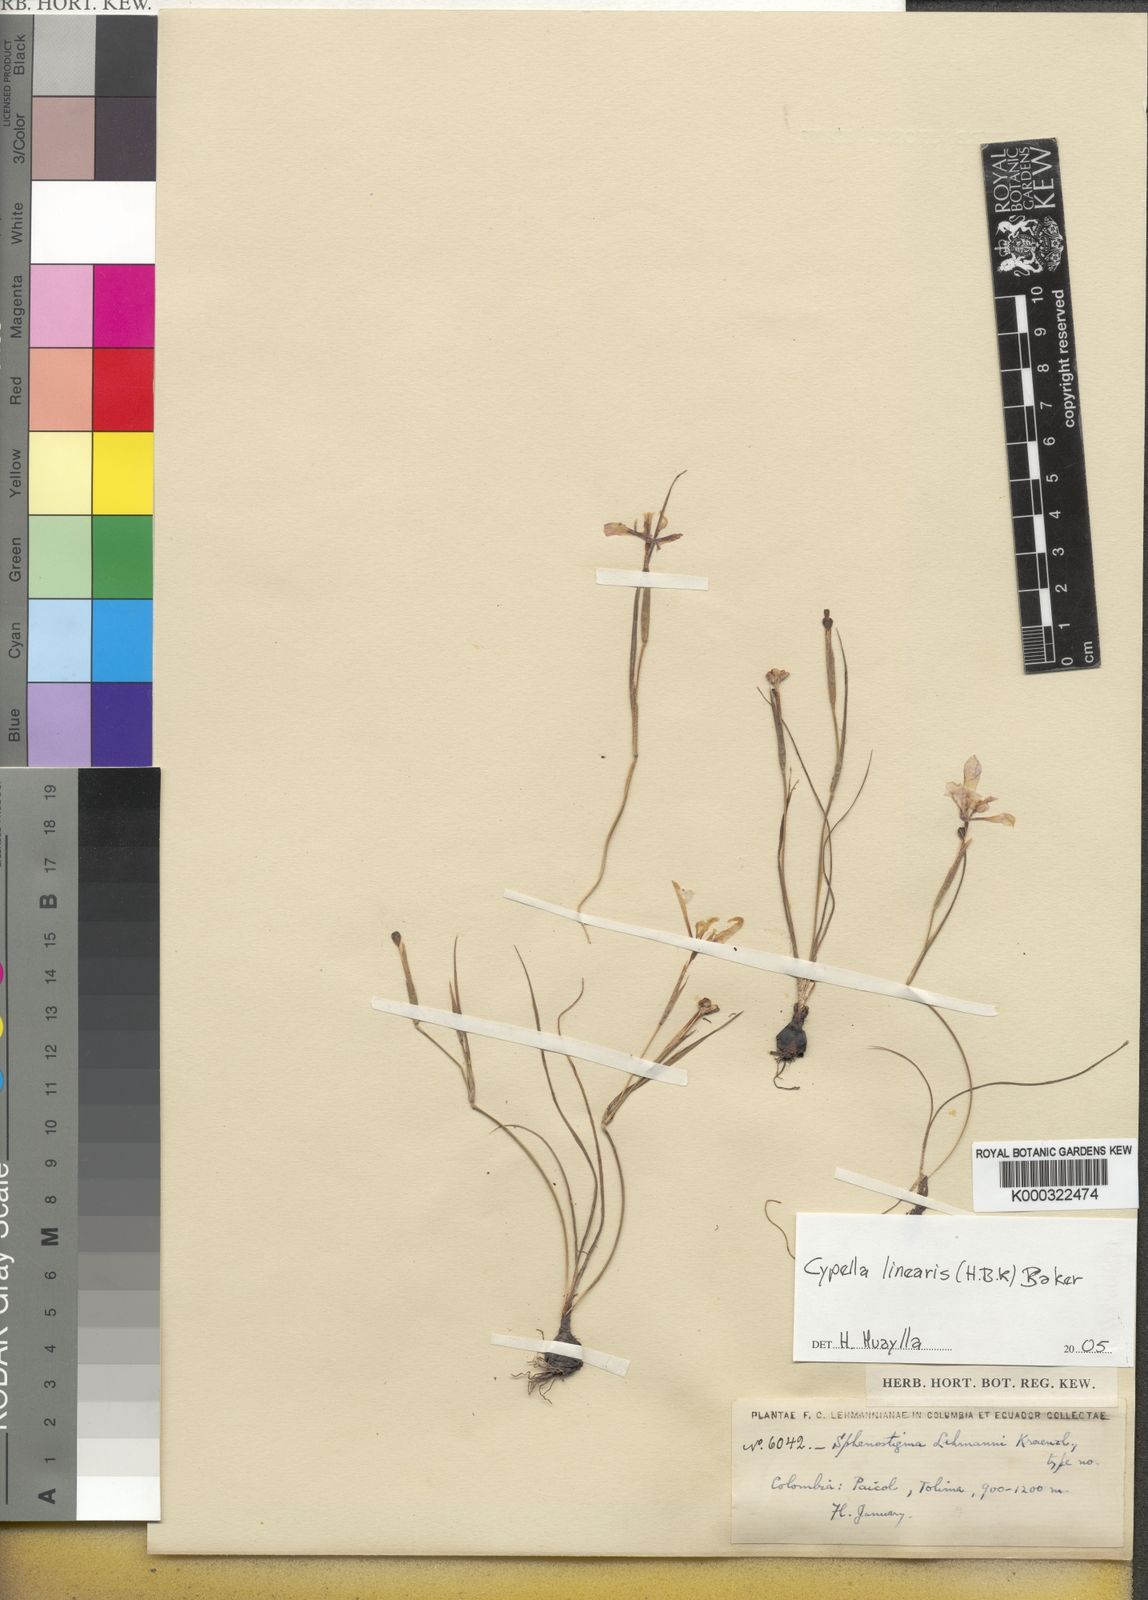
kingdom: Plantae
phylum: Tracheophyta
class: Liliopsida
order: Asparagales
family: Iridaceae
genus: Larentia
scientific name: Larentia linearis
